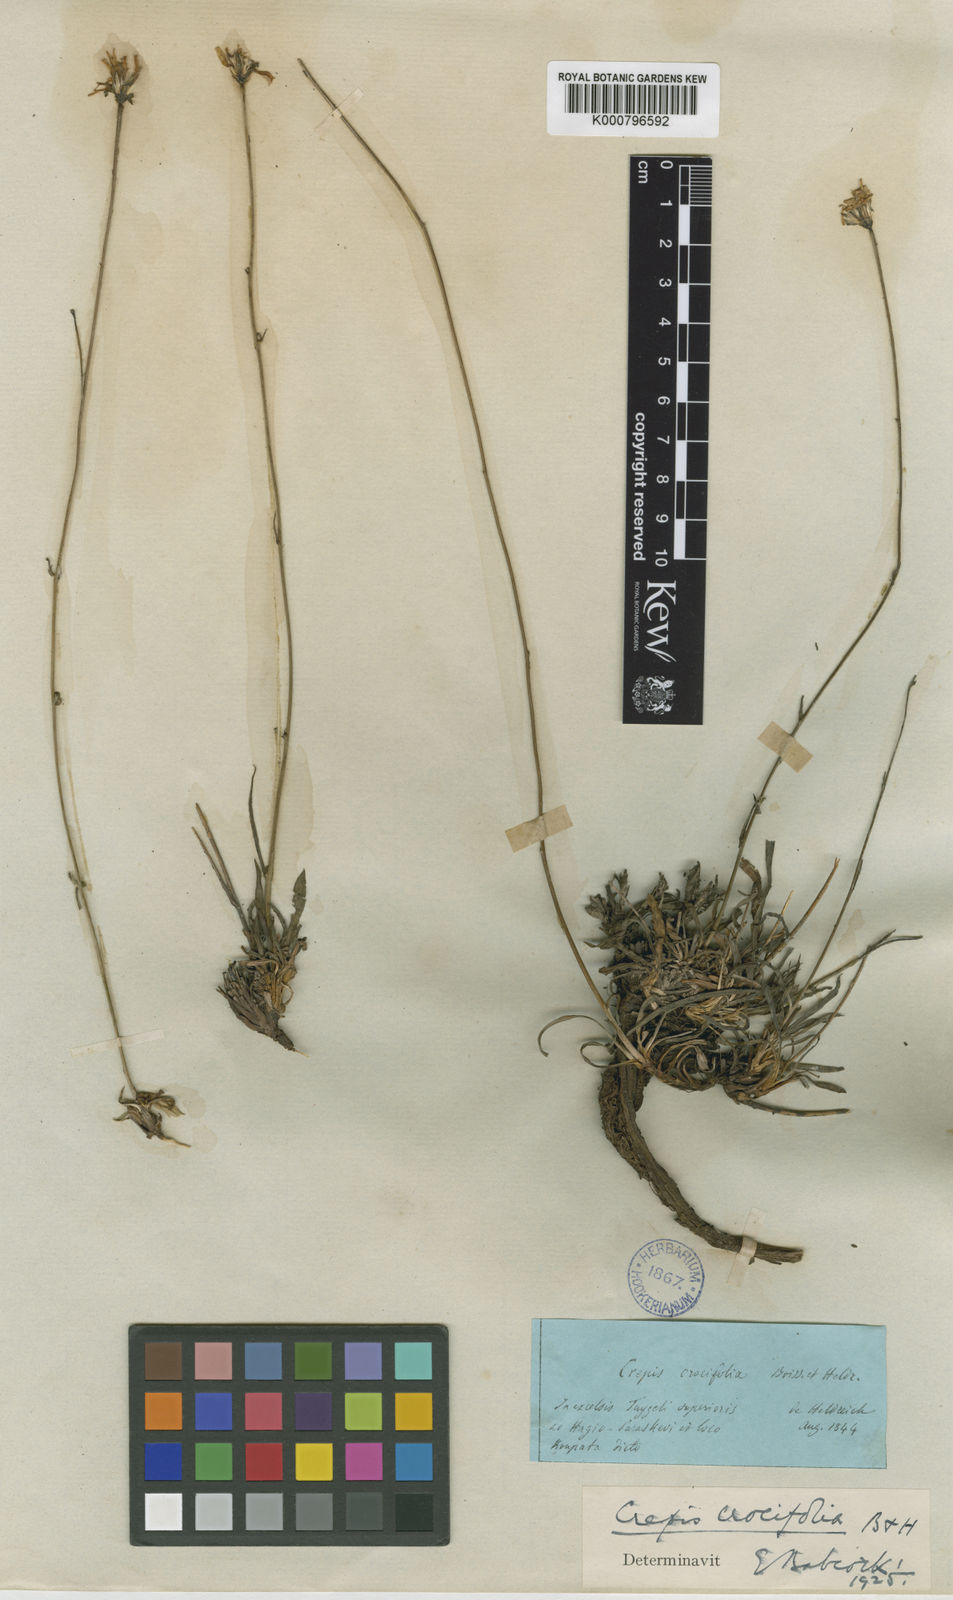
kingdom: Plantae
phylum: Tracheophyta
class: Magnoliopsida
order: Asterales
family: Asteraceae
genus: Phitosia
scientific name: Phitosia crocifolia
